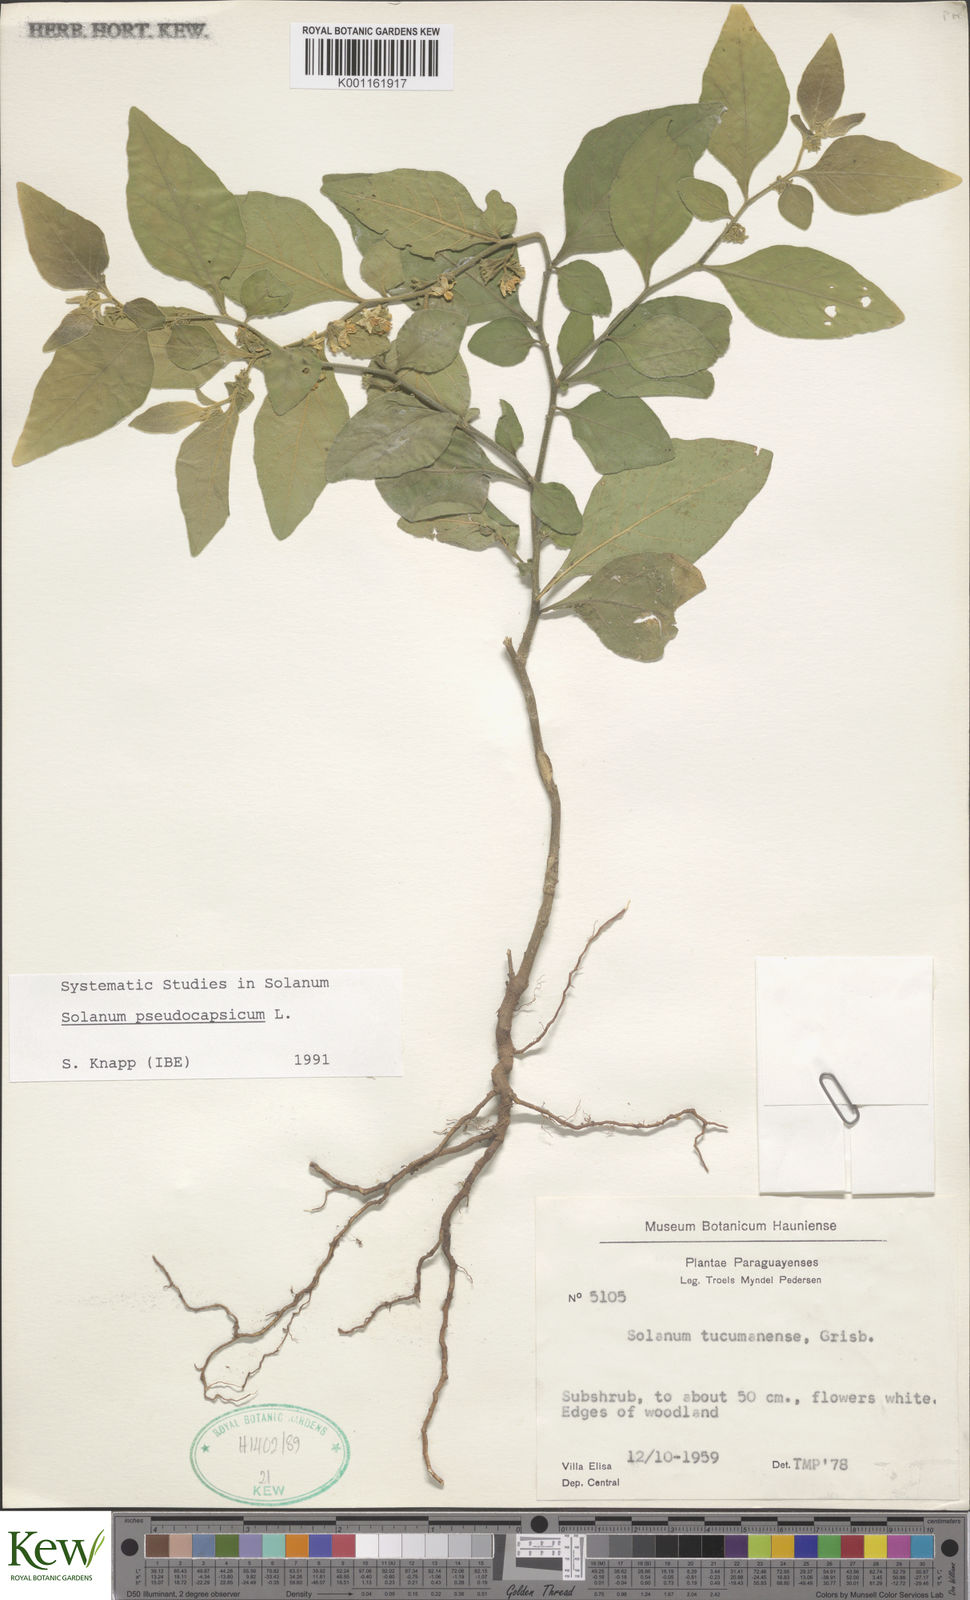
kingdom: Plantae
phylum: Tracheophyta
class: Magnoliopsida
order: Solanales
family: Solanaceae
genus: Solanum
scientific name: Solanum pseudocapsicum
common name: Jerusalem cherry
